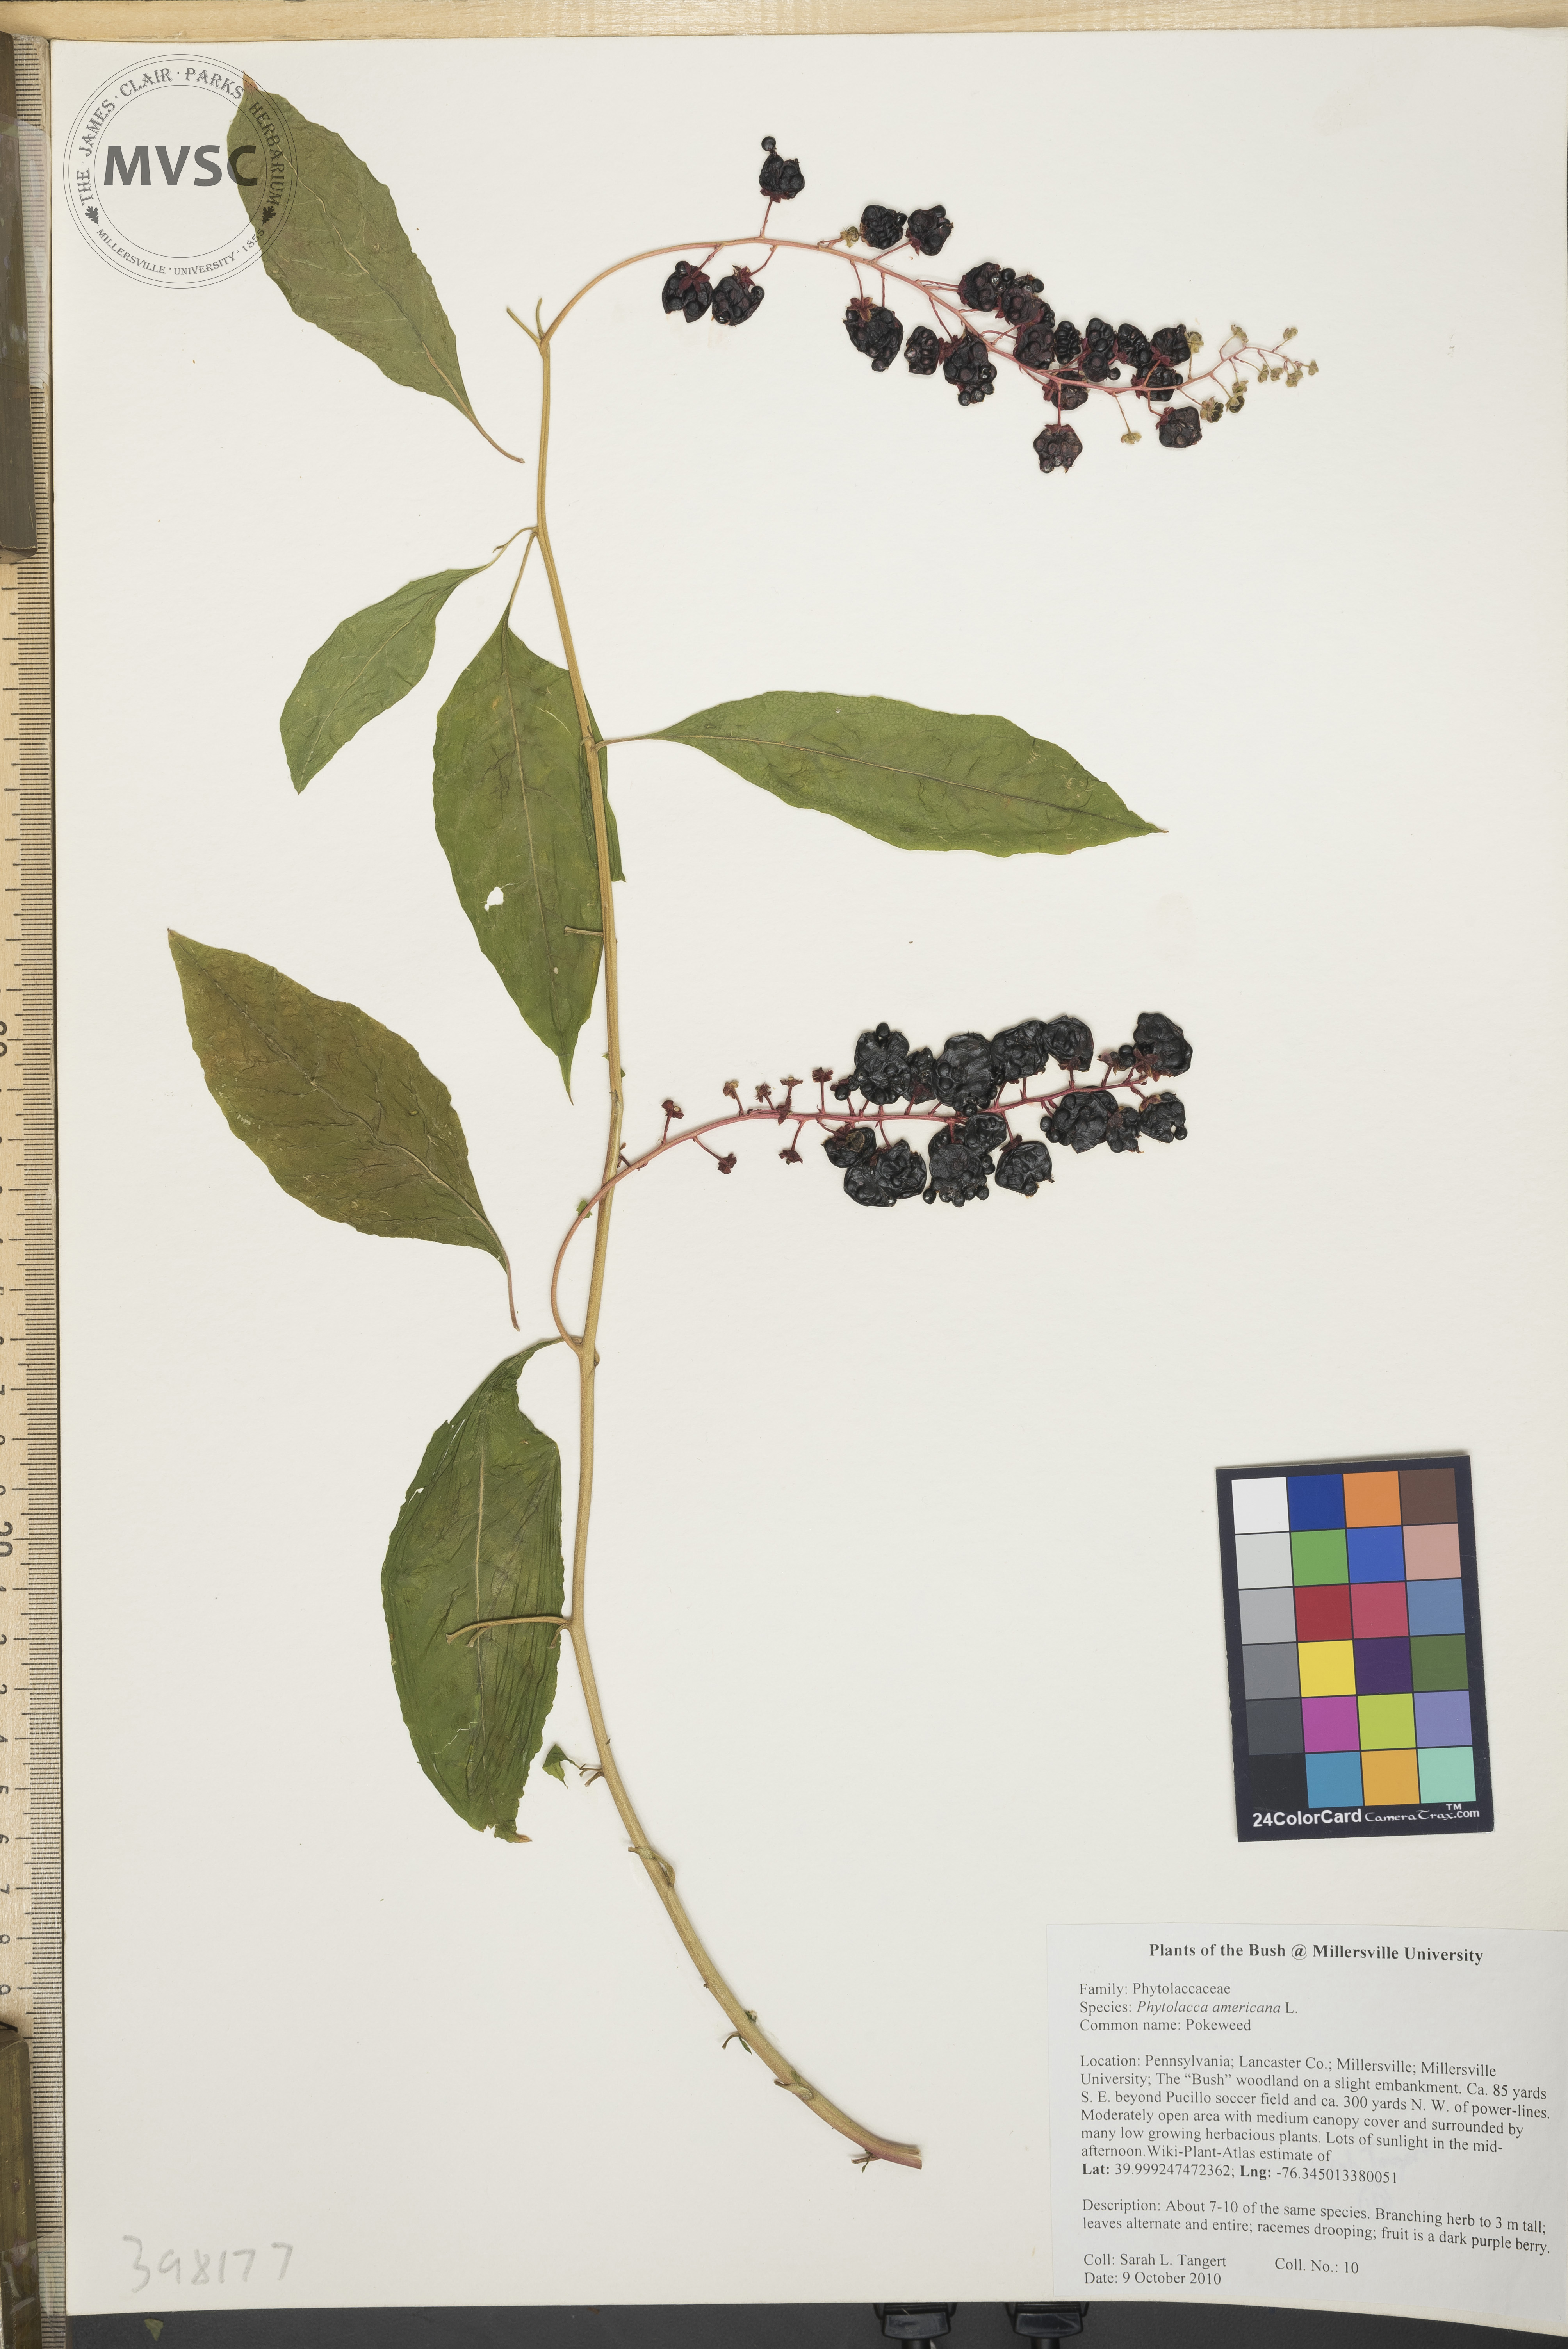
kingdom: Plantae
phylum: Tracheophyta
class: Magnoliopsida
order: Caryophyllales
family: Phytolaccaceae
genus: Phytolacca
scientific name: Phytolacca americana
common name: Pokeweed
